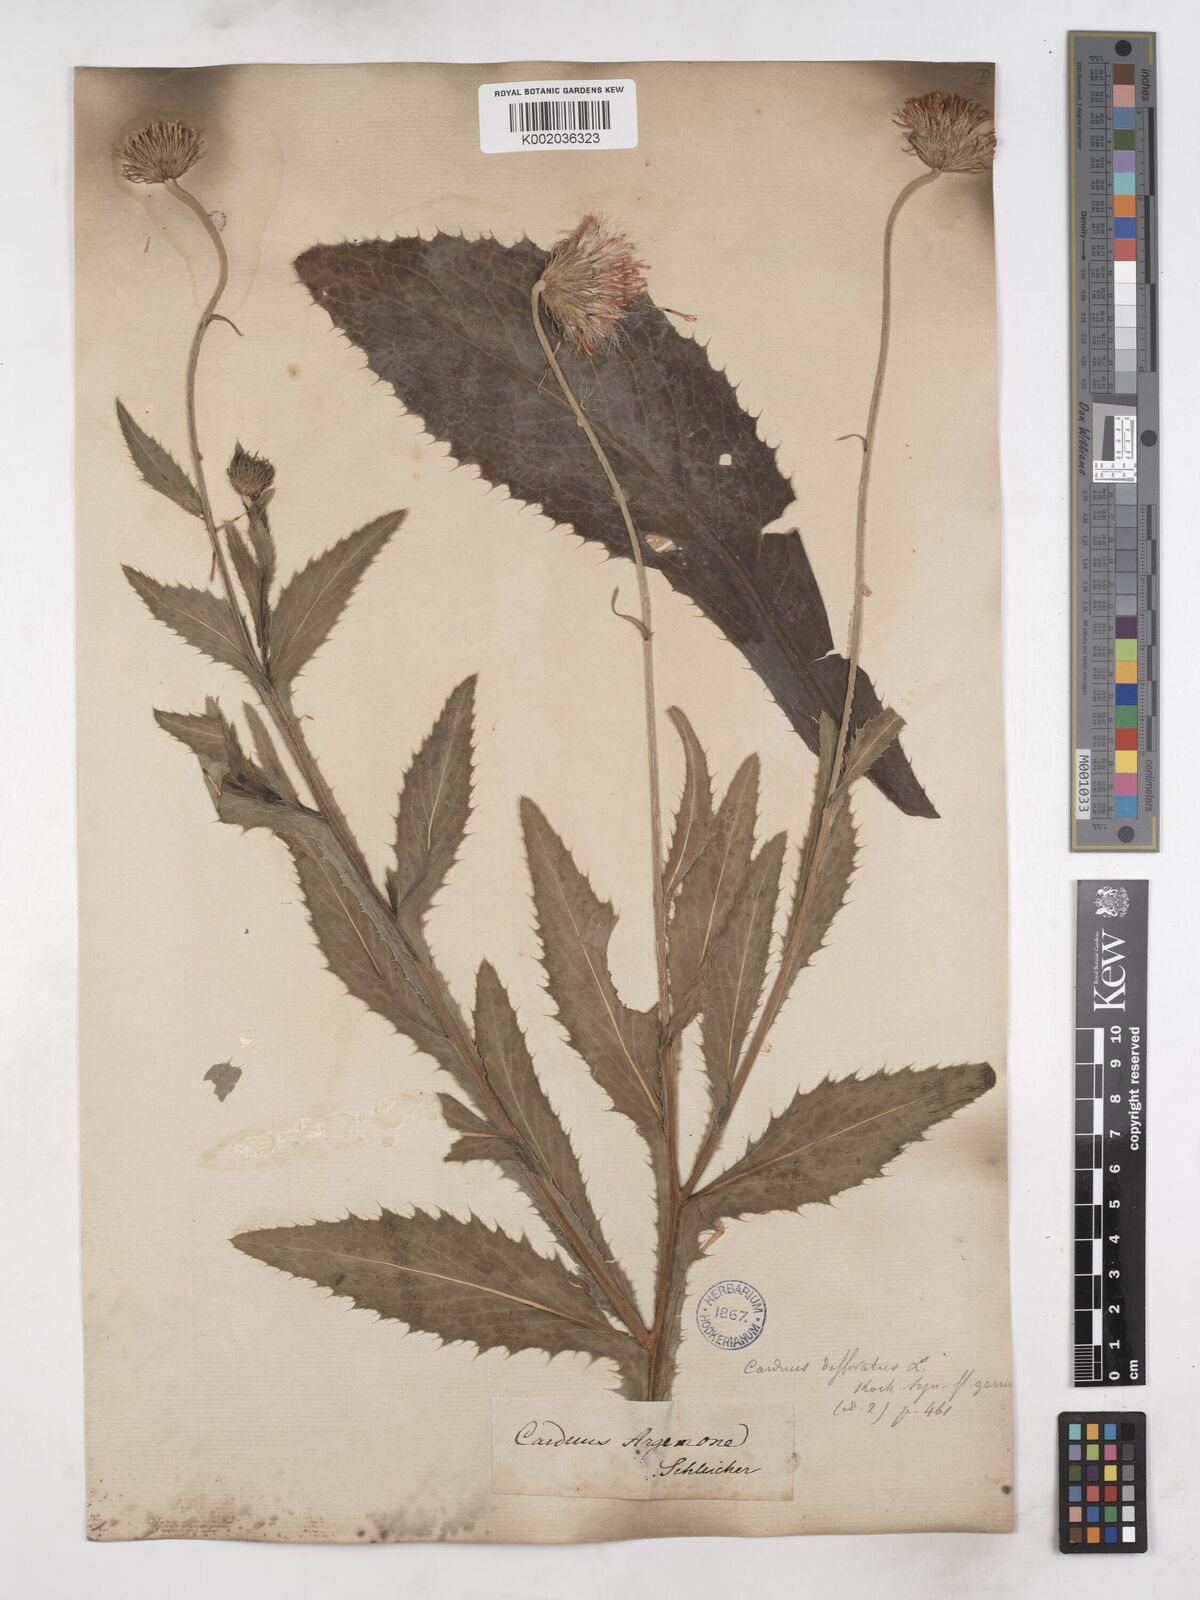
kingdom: Plantae
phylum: Tracheophyta
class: Magnoliopsida
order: Asterales
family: Asteraceae
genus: Carduus
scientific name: Carduus defloratus
